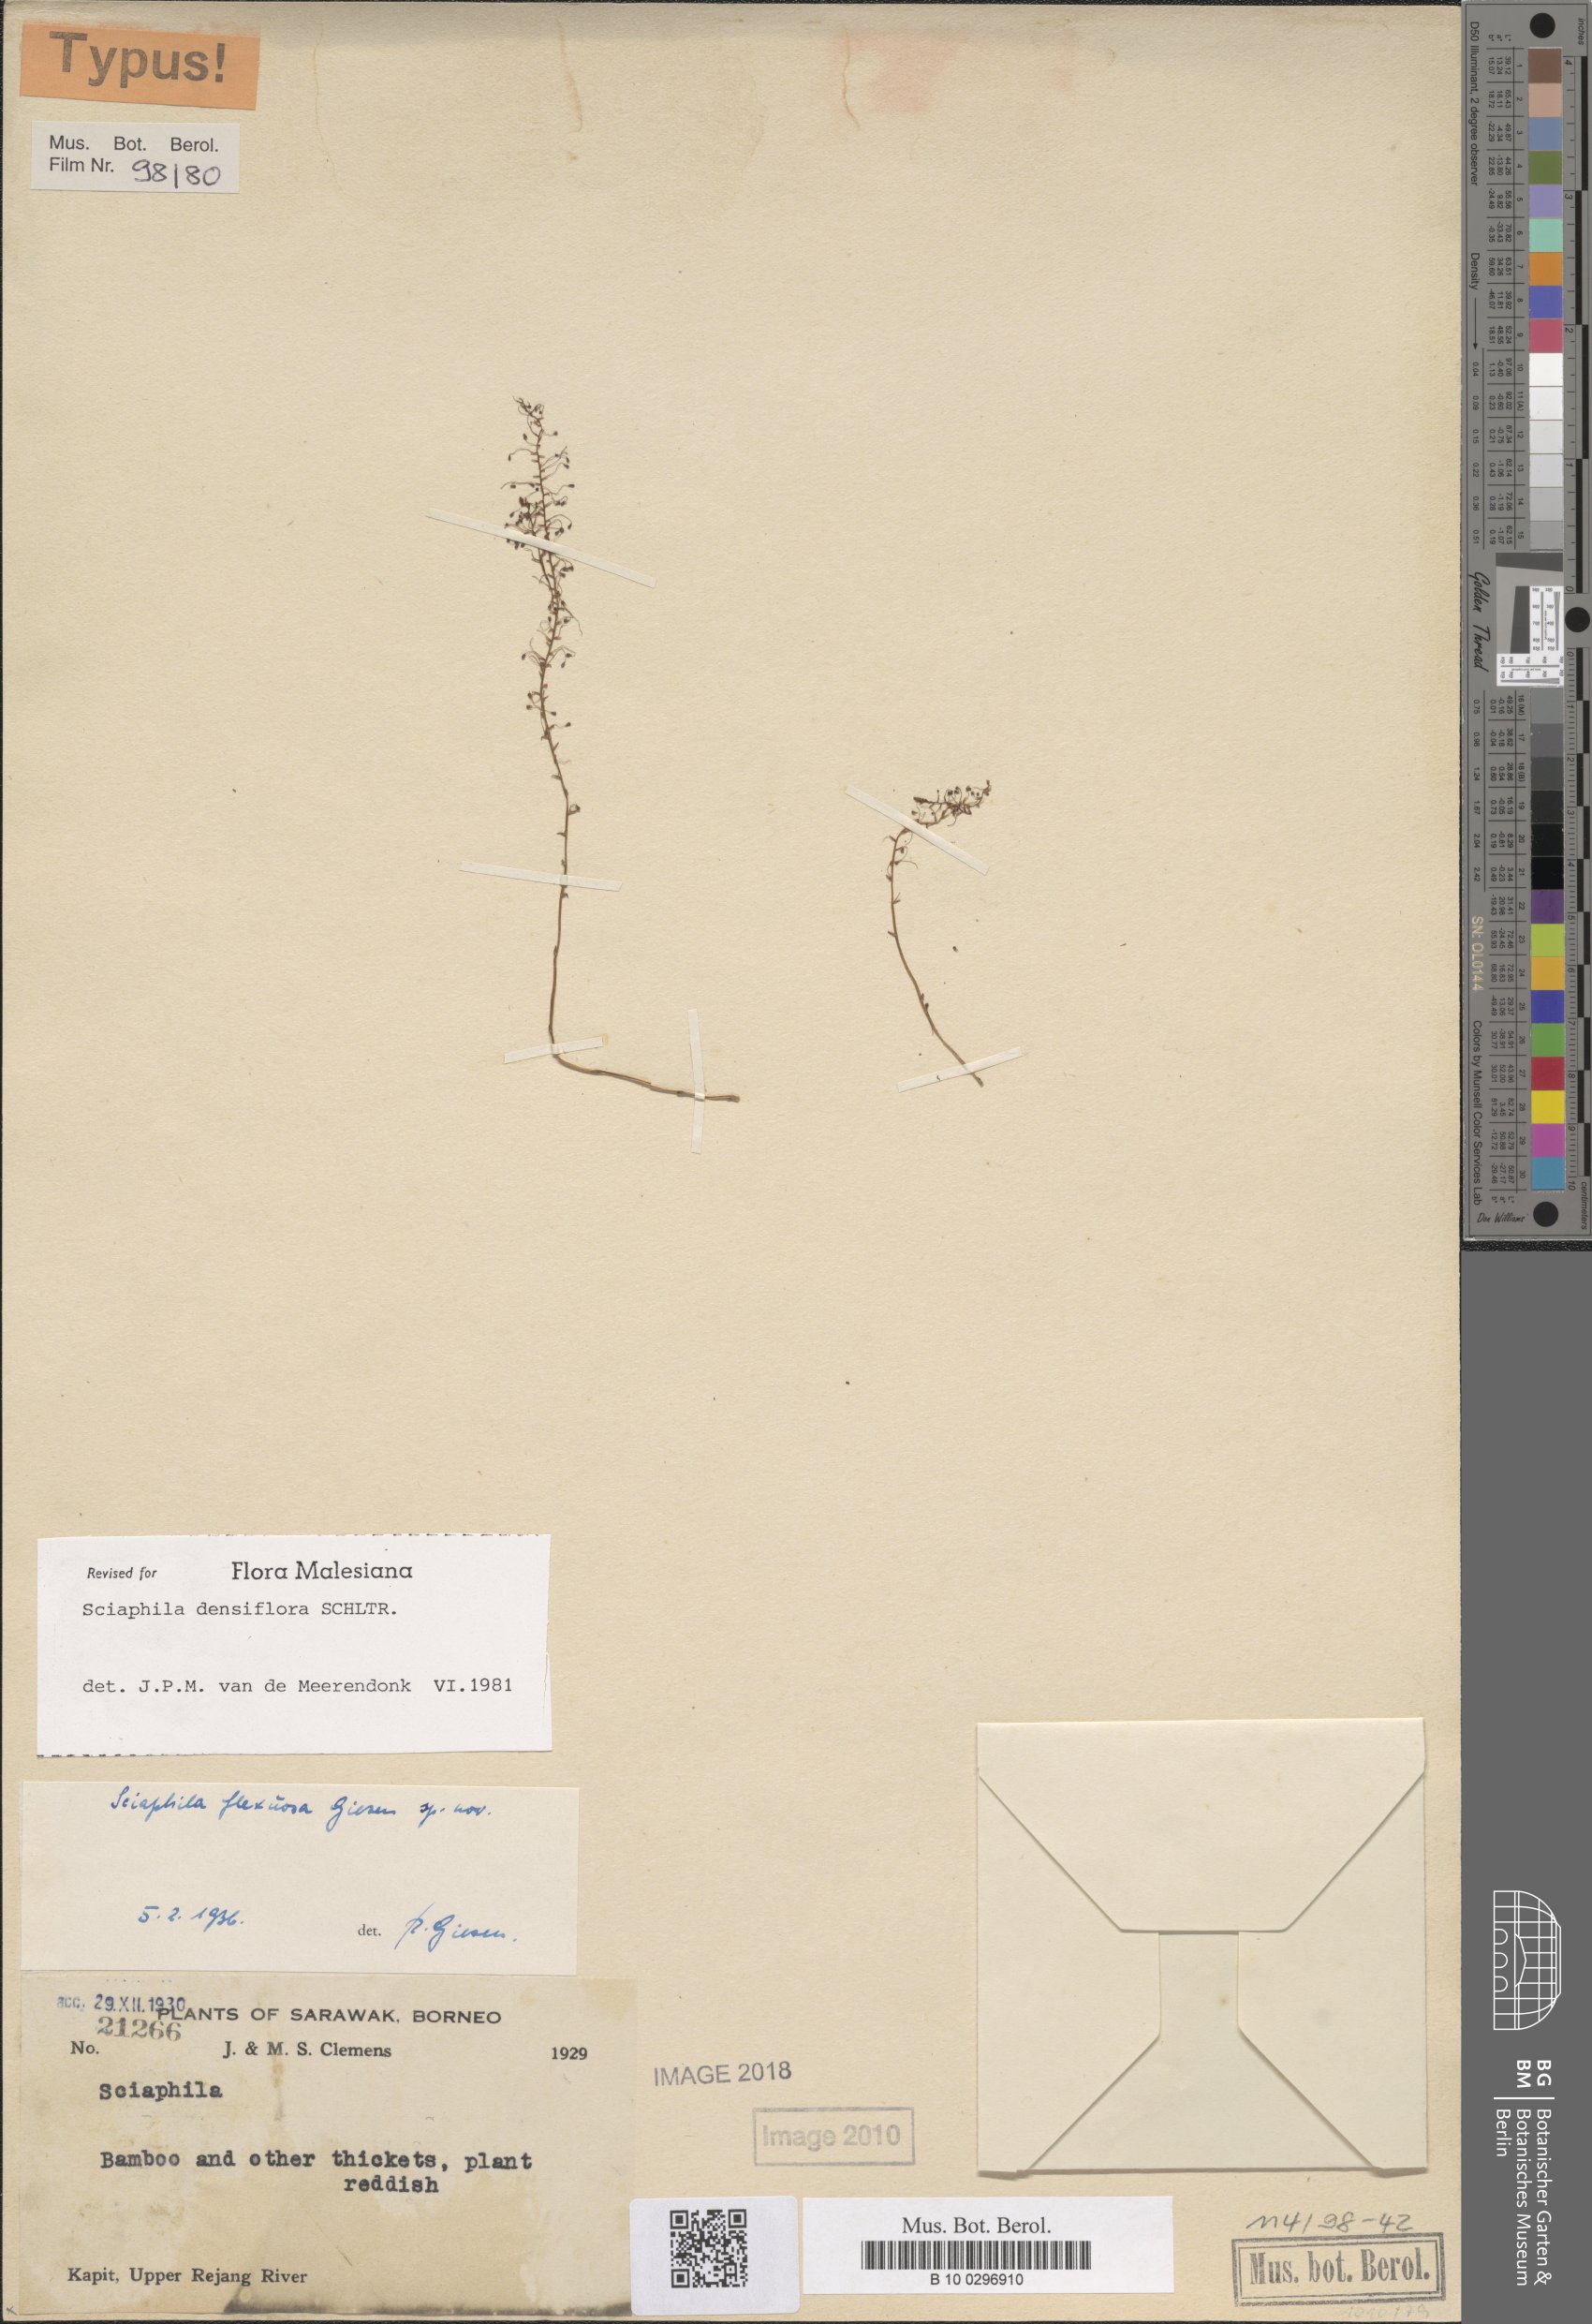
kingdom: Plantae
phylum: Tracheophyta
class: Liliopsida
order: Pandanales
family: Triuridaceae
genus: Sciaphila
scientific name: Sciaphila densiflora
